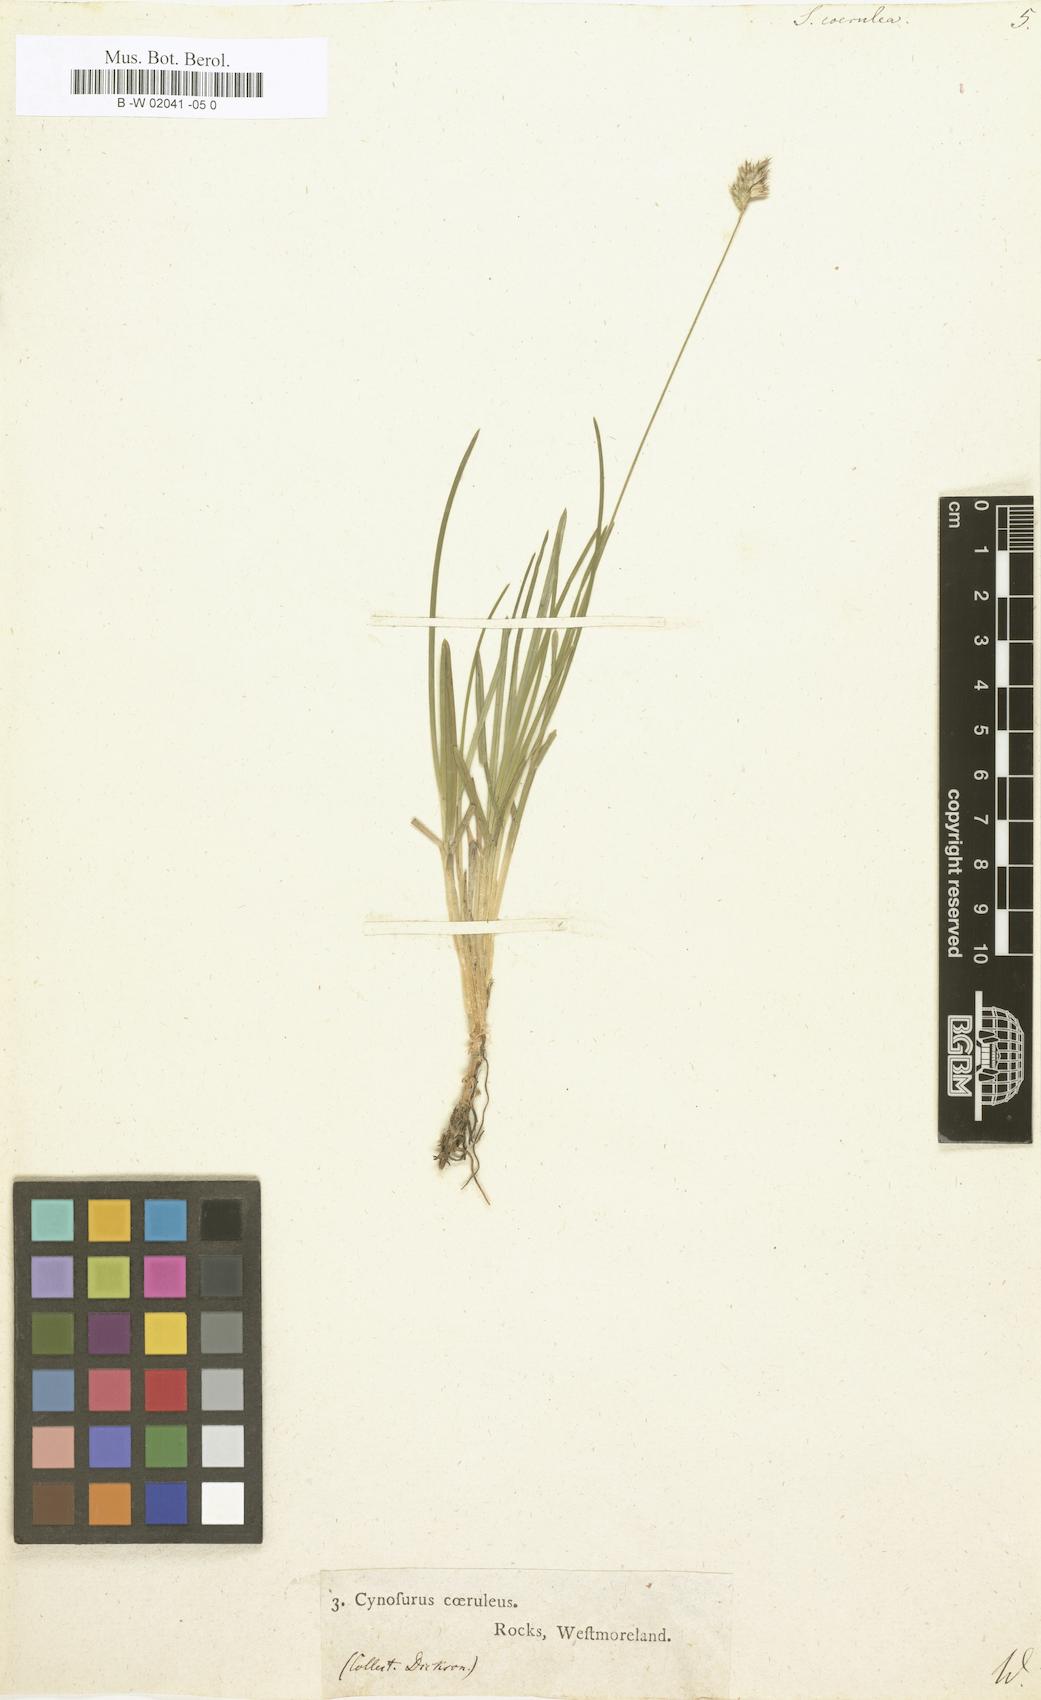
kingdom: Plantae
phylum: Tracheophyta
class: Liliopsida
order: Poales
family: Poaceae
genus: Sesleria
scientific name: Sesleria caerulea
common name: Blue moor-grass
